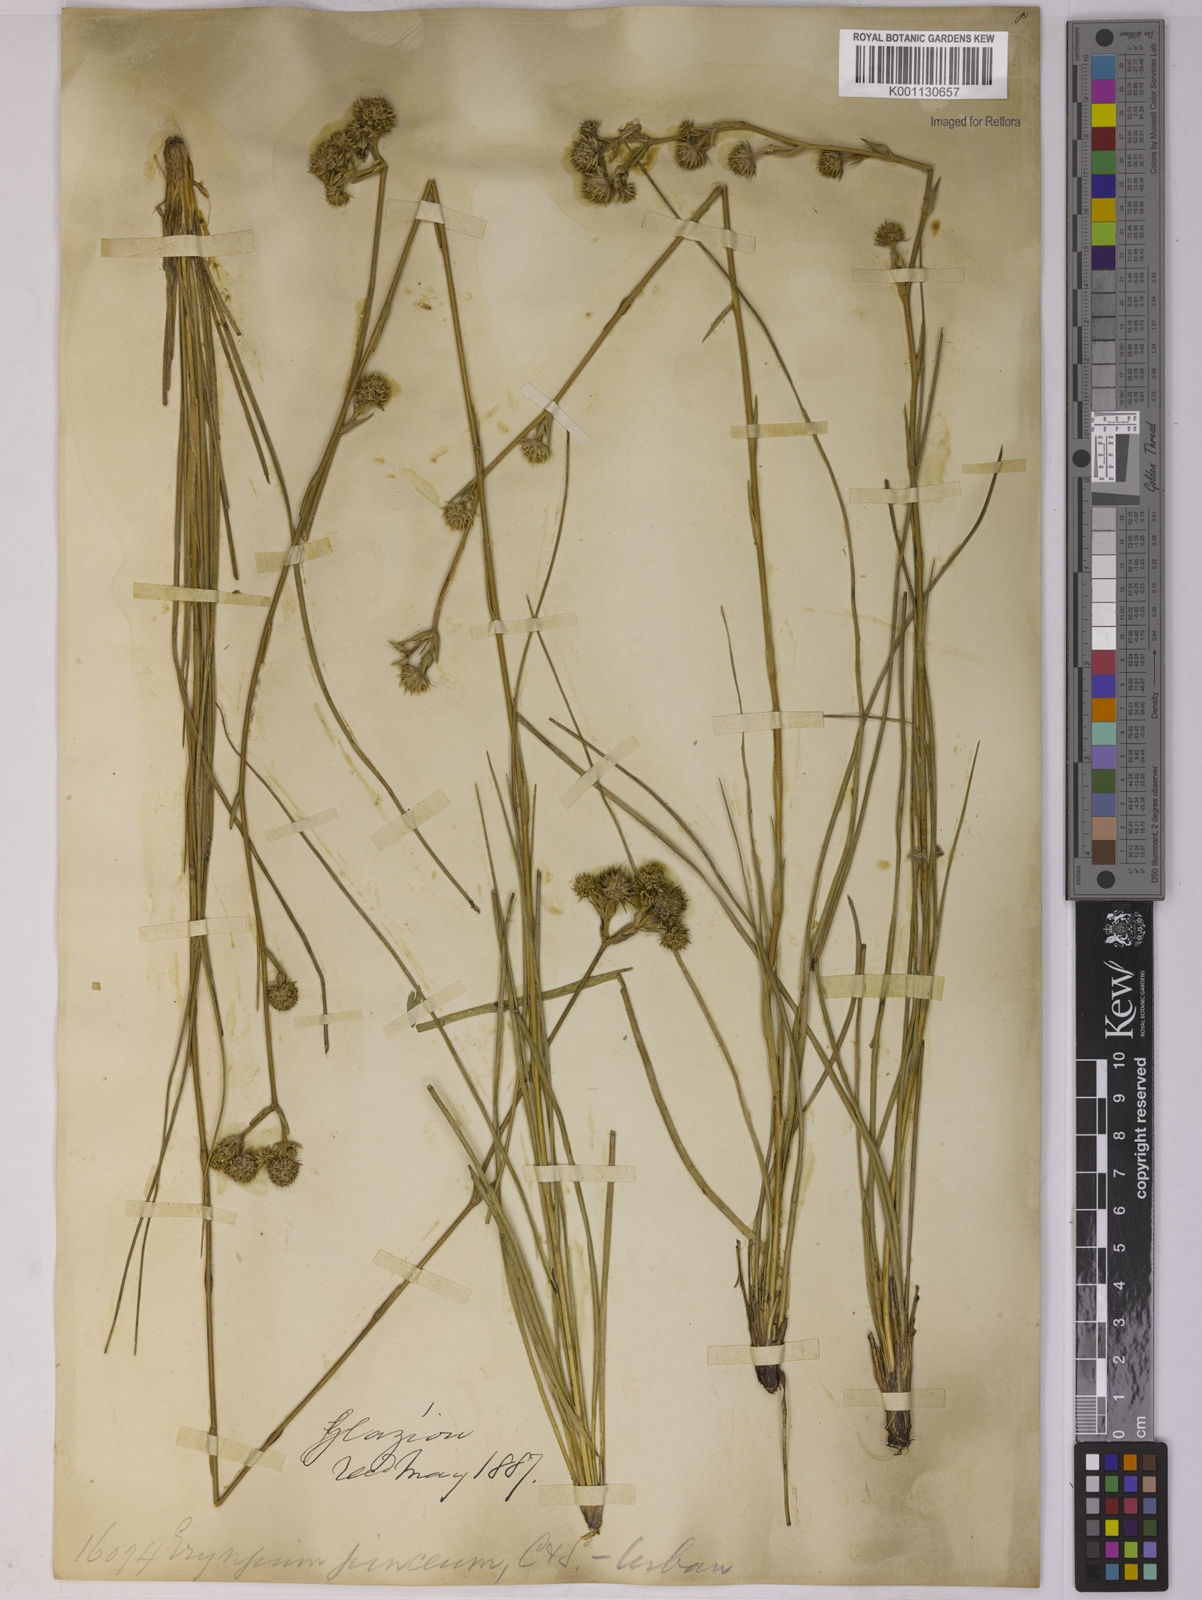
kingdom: Plantae
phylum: Tracheophyta
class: Magnoliopsida
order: Apiales
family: Apiaceae
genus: Eryngium
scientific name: Eryngium junceum
